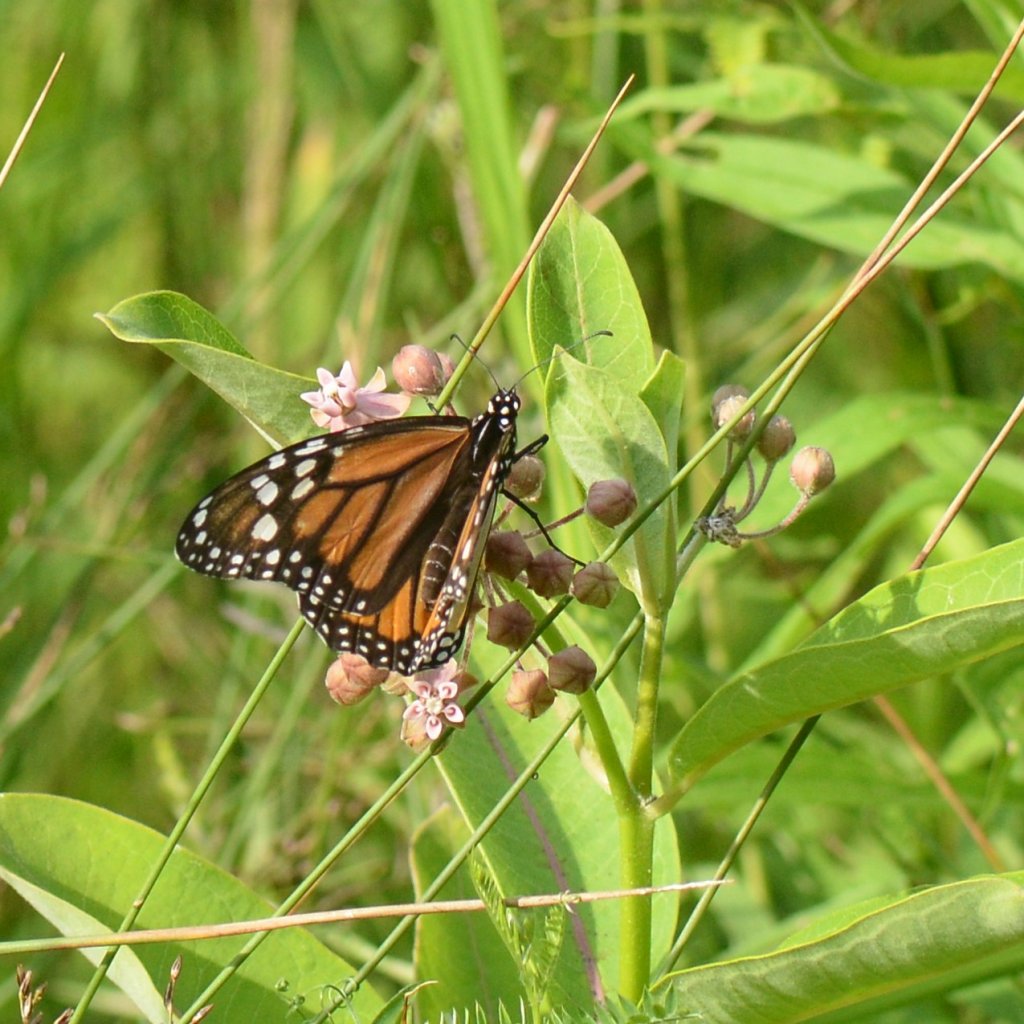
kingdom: Animalia
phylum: Arthropoda
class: Insecta
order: Lepidoptera
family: Nymphalidae
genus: Danaus
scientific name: Danaus plexippus
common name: Monarch
